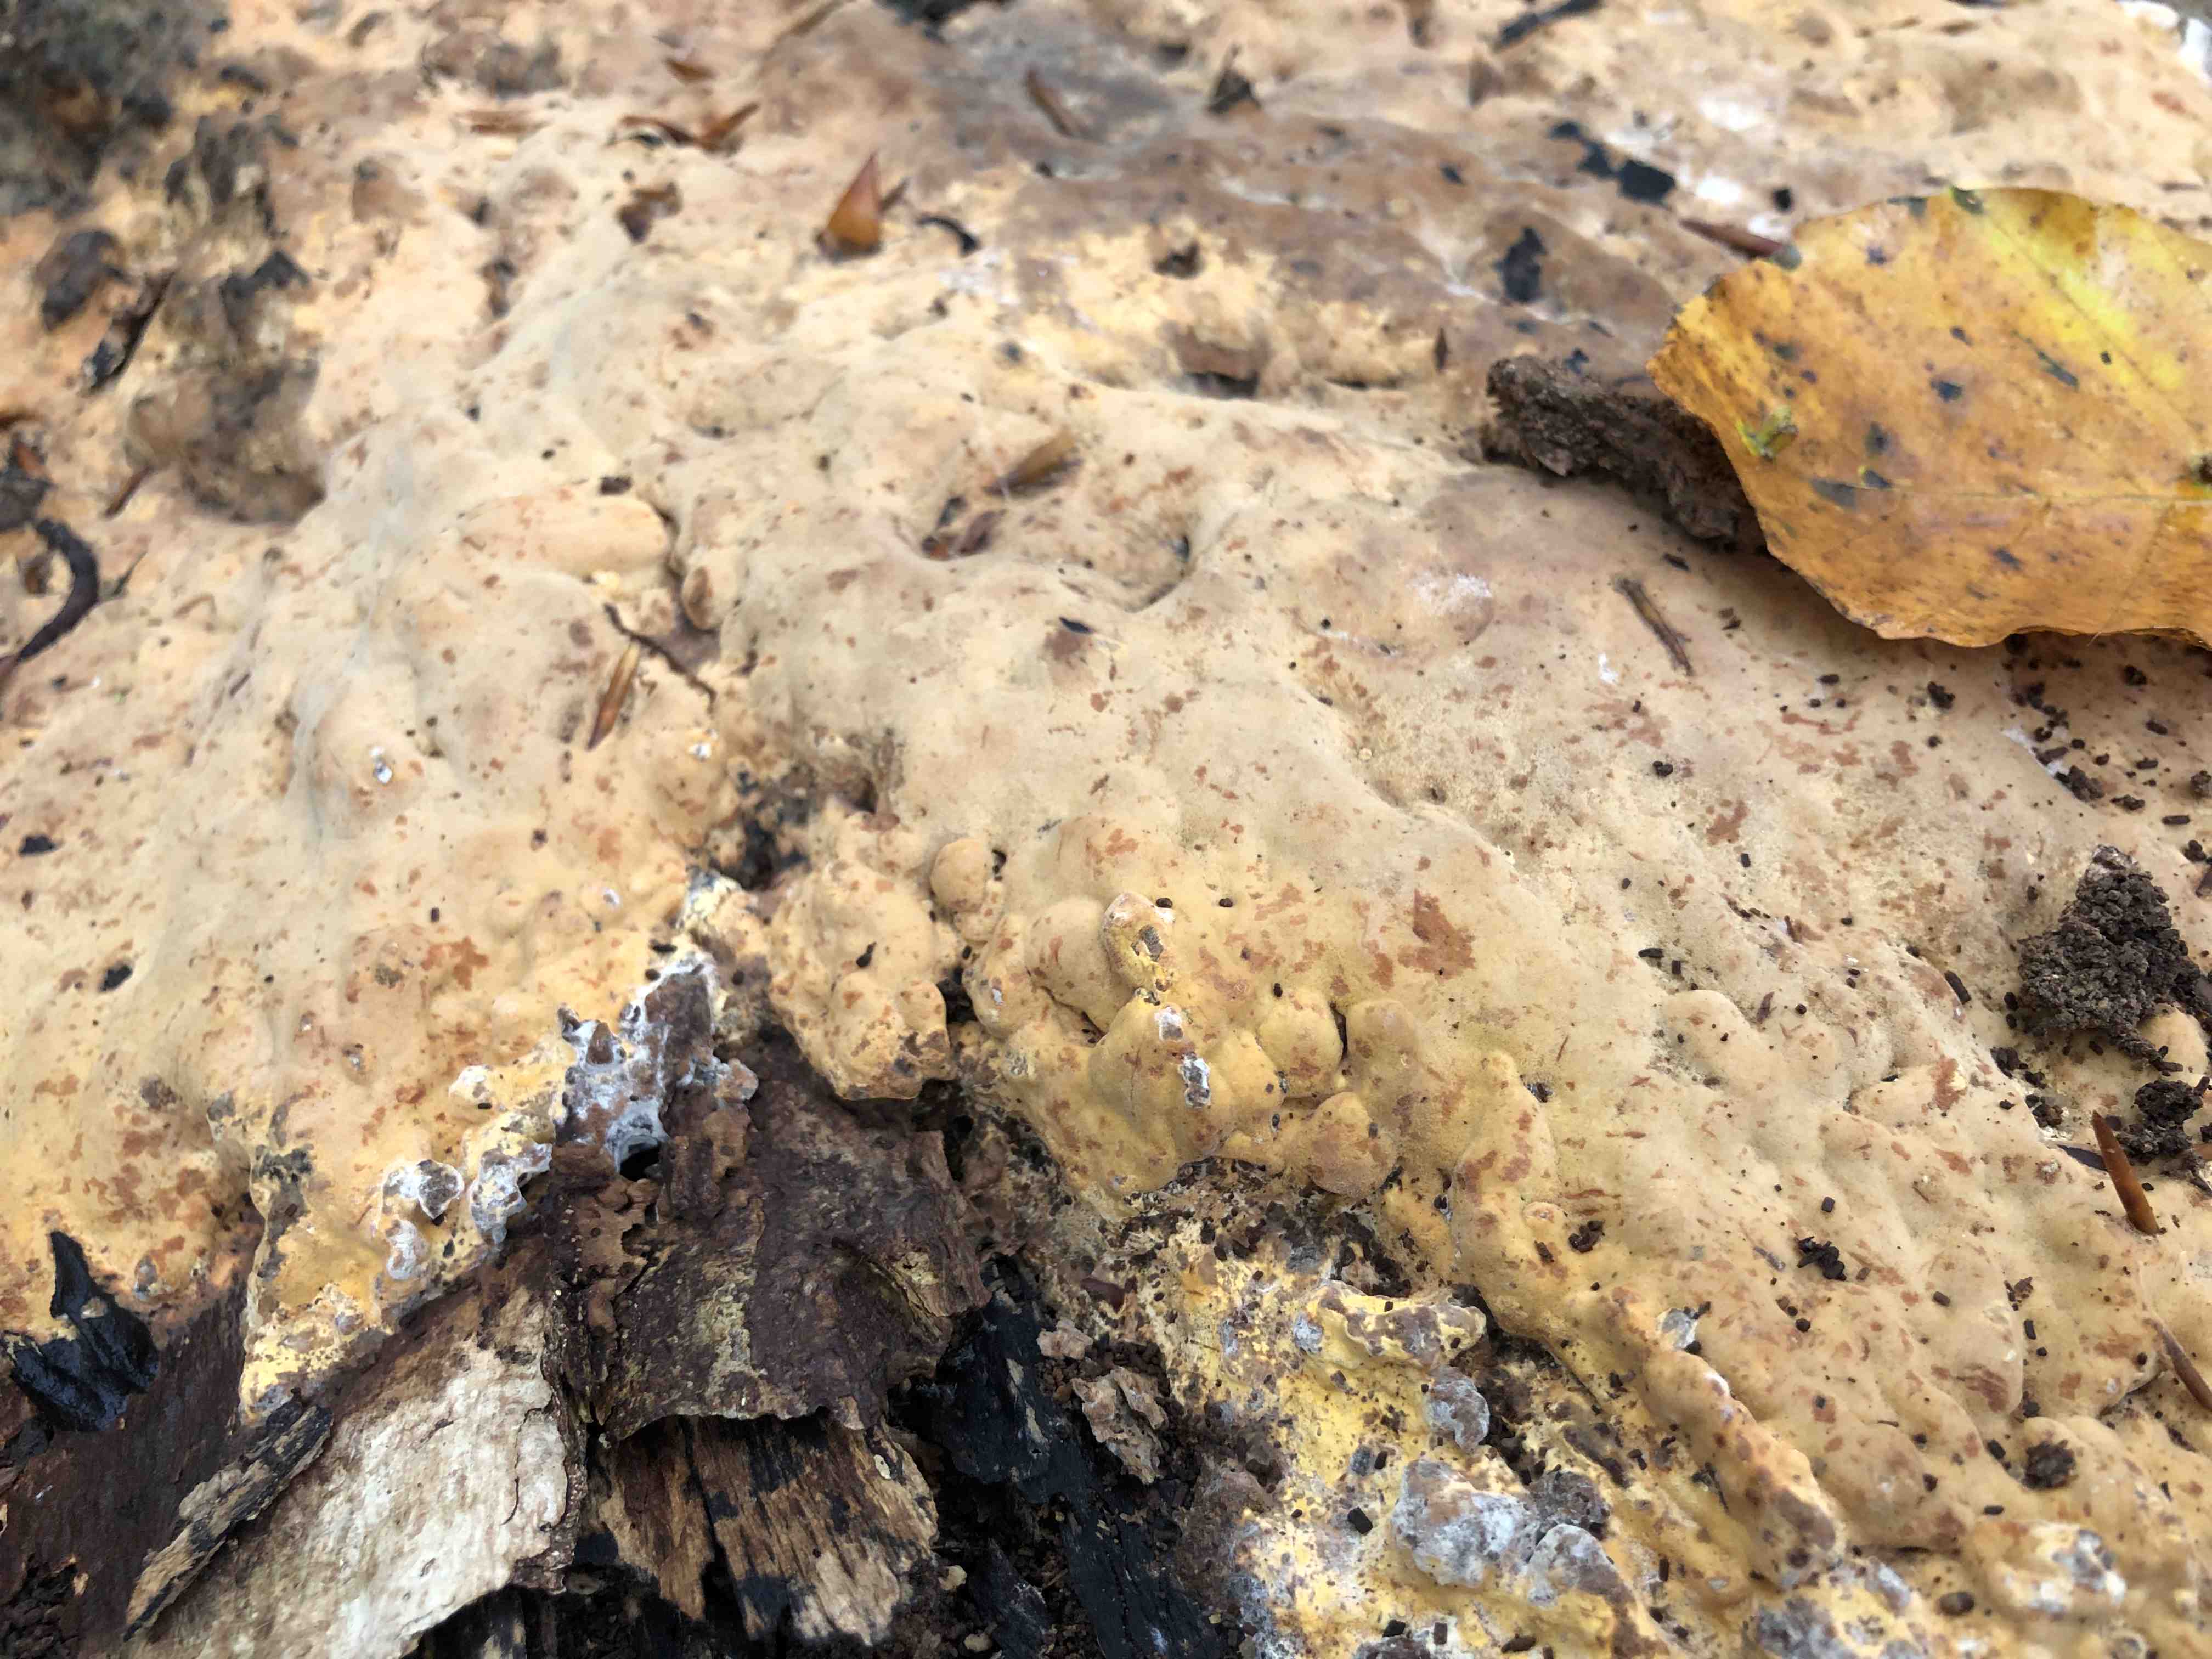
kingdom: Fungi
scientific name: Fungi
